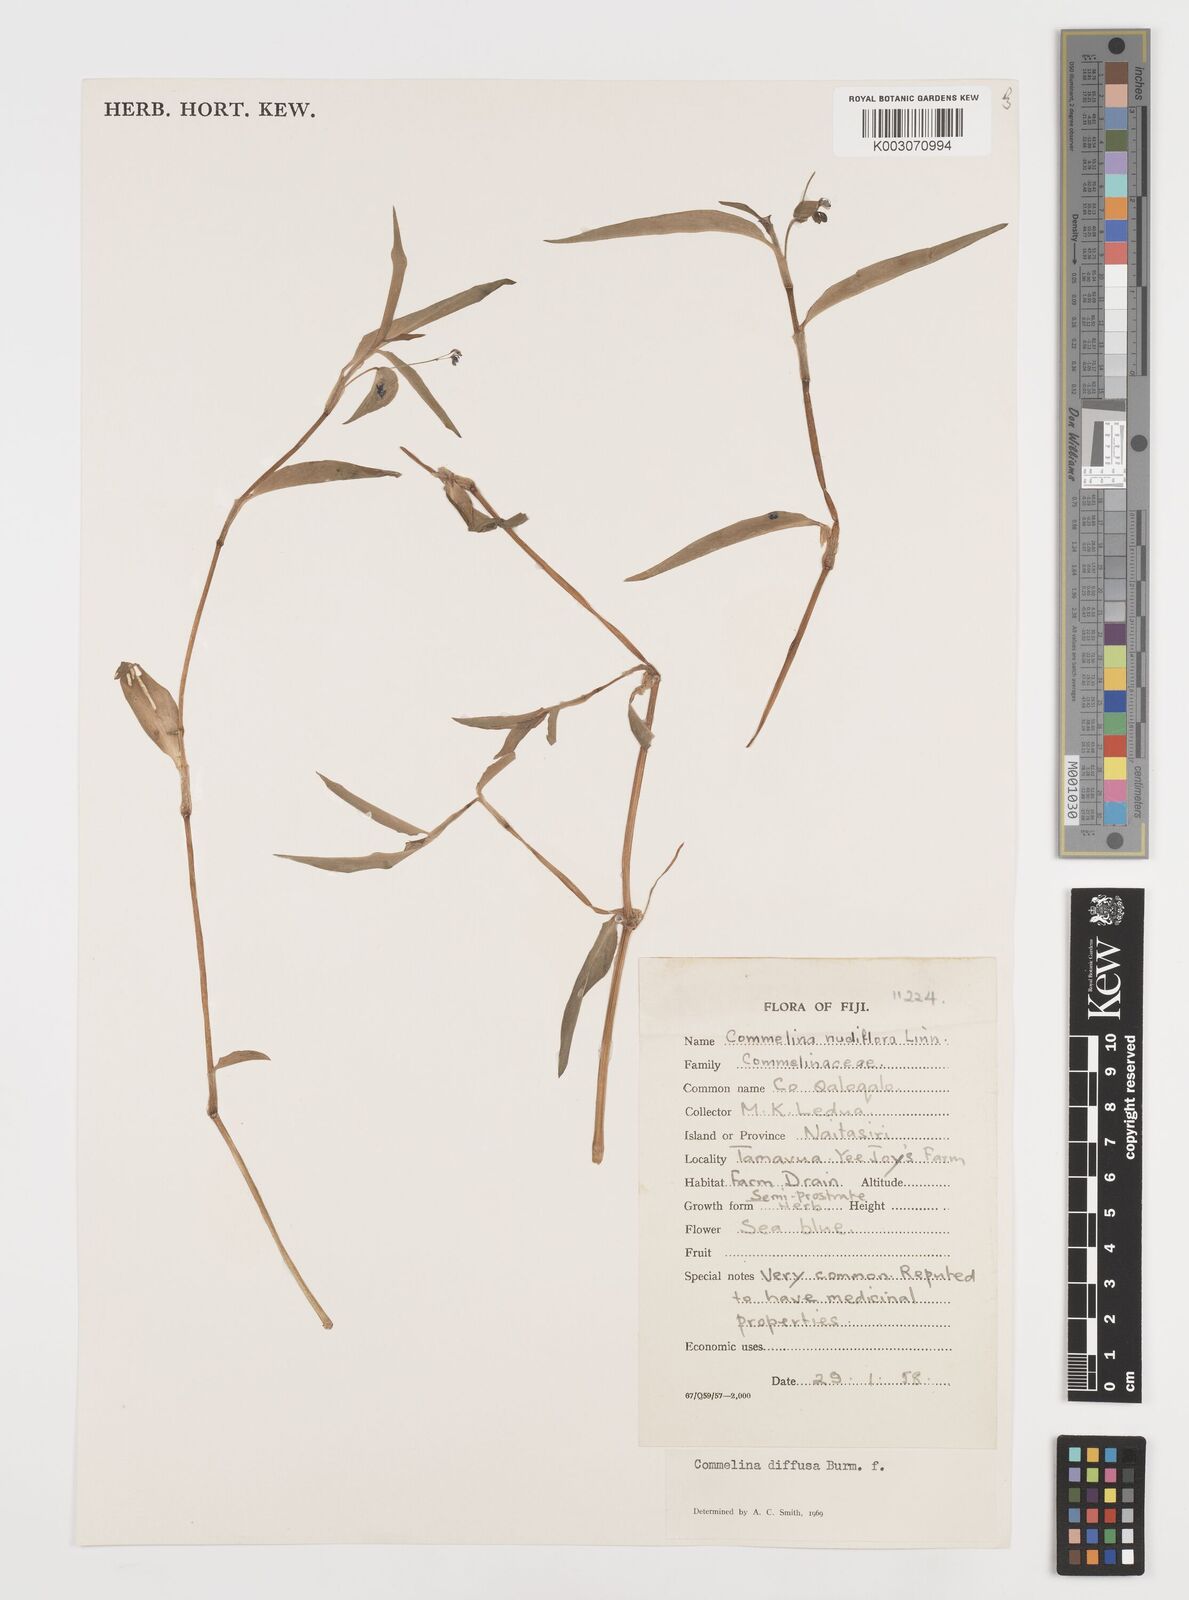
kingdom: Plantae
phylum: Tracheophyta
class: Liliopsida
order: Commelinales
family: Commelinaceae
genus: Commelina
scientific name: Commelina diffusa
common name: Climbing dayflower
